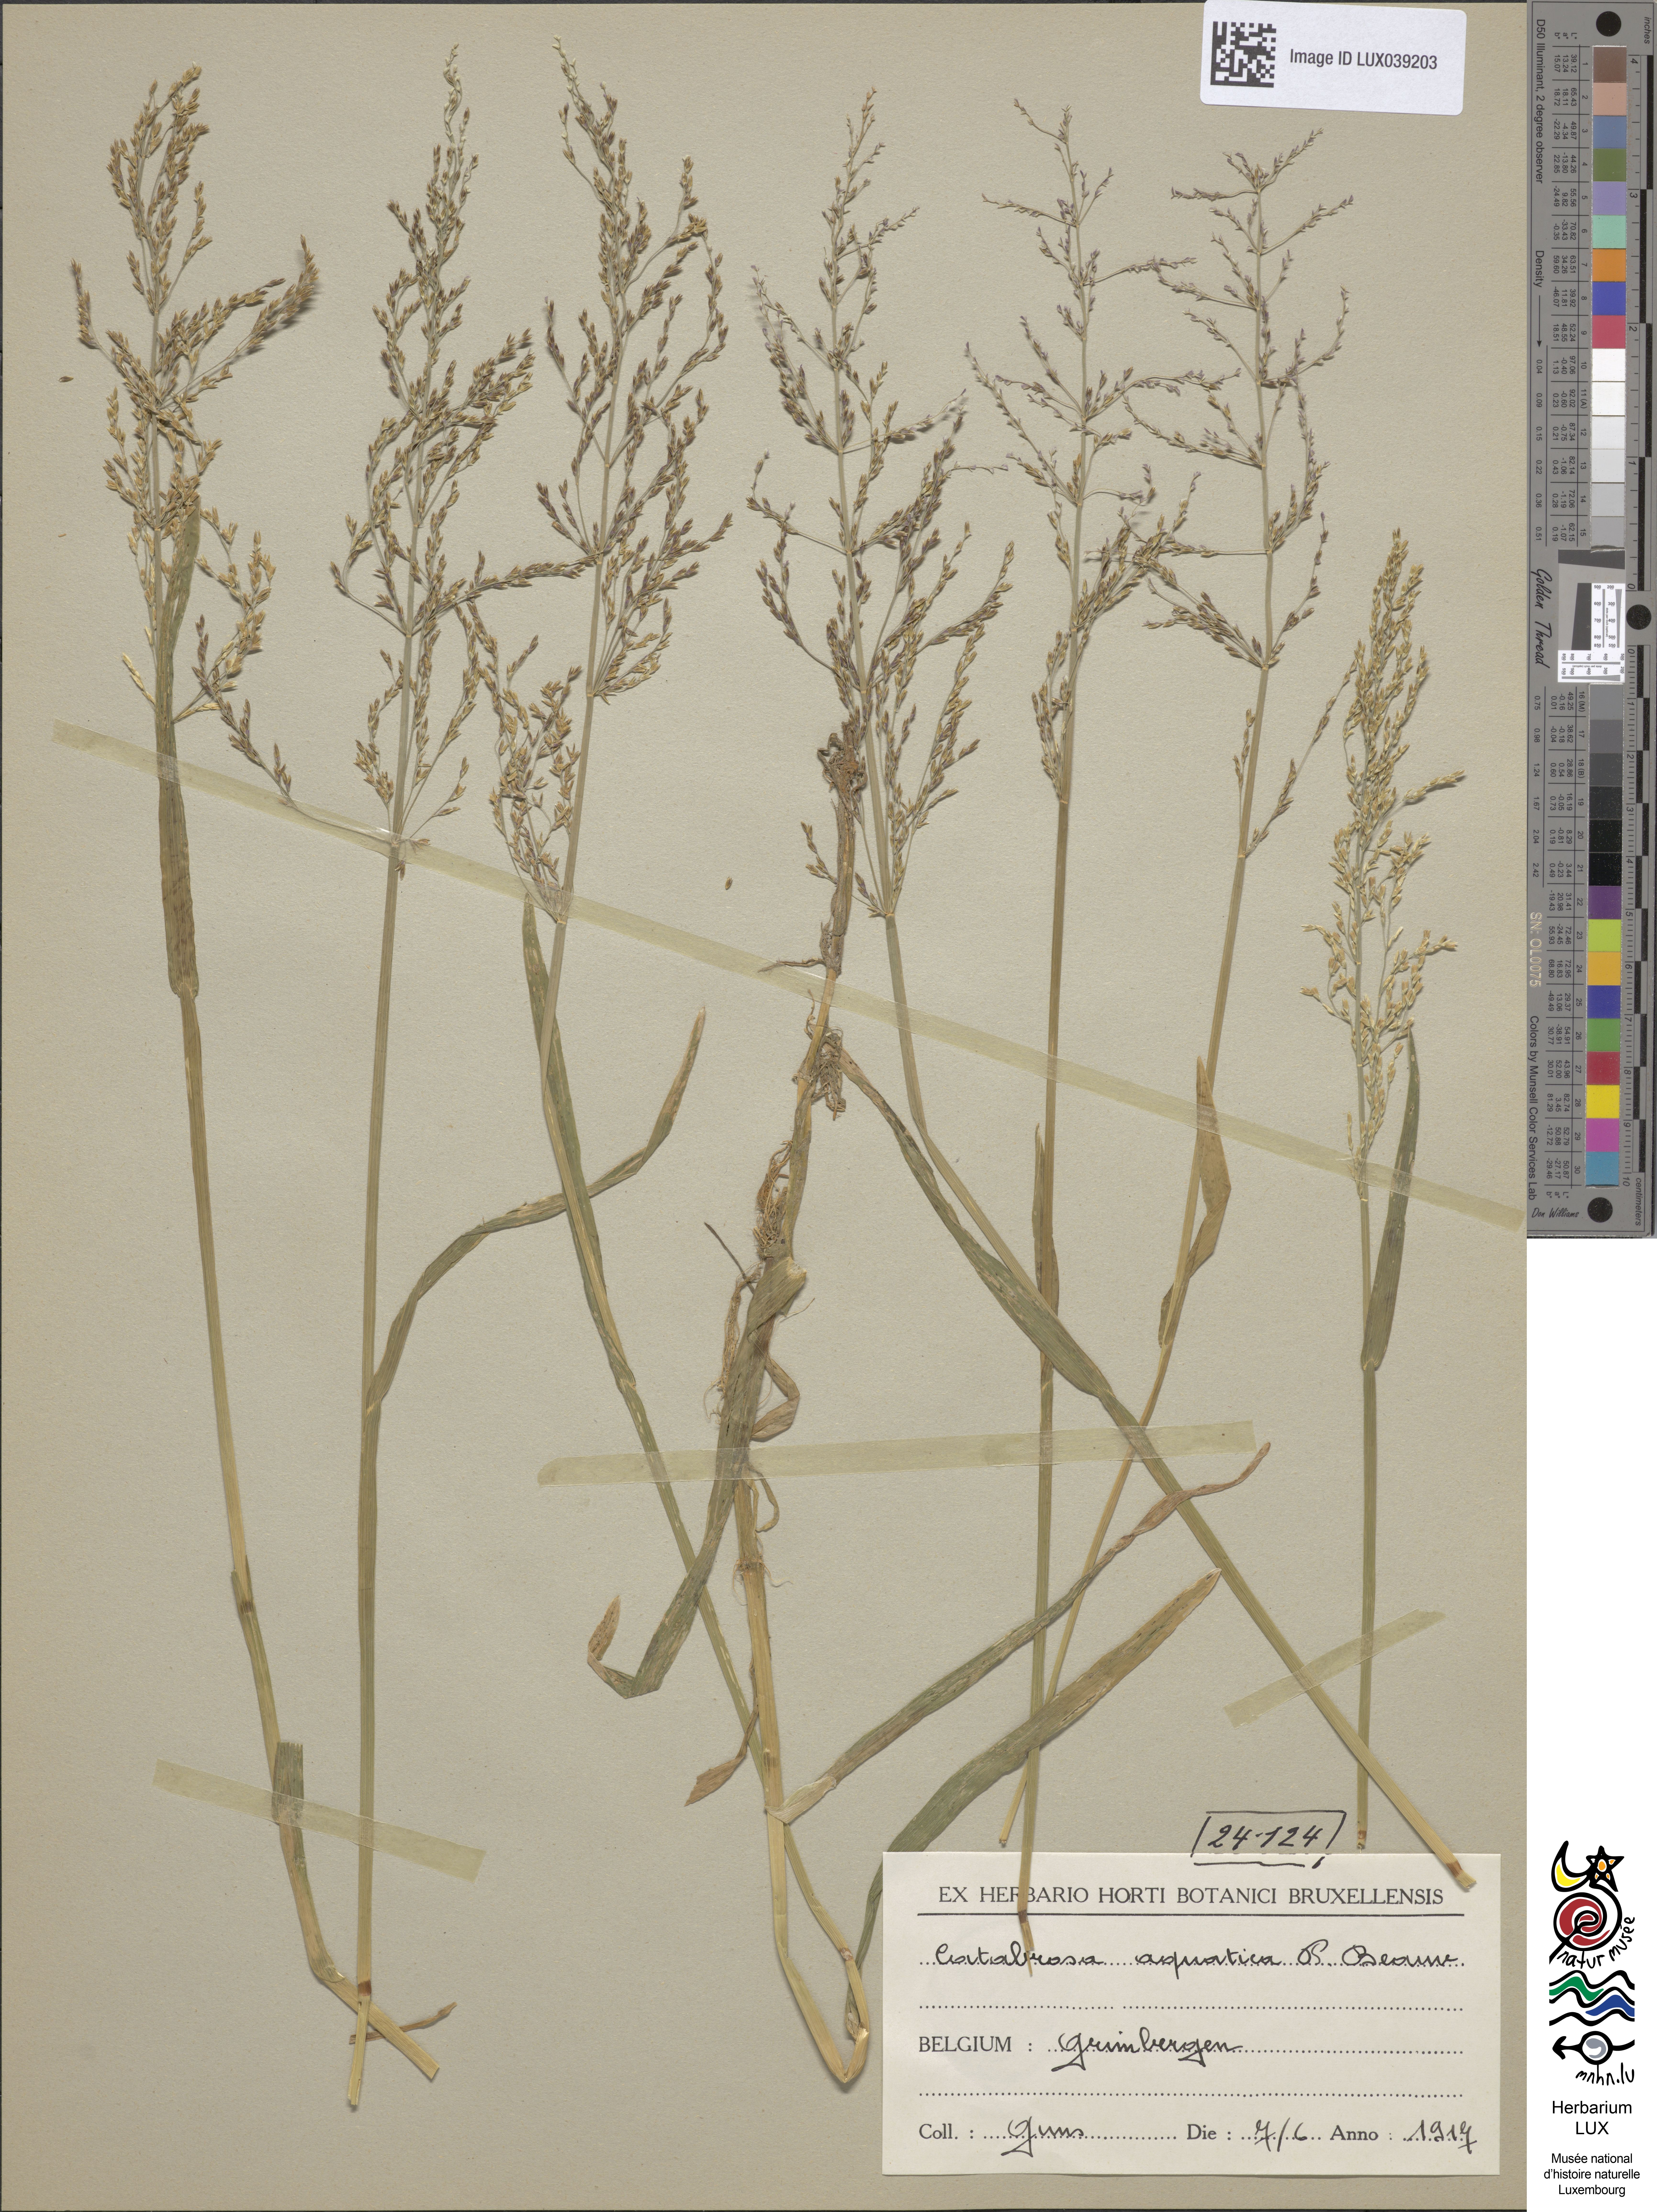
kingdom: Plantae
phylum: Tracheophyta
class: Liliopsida
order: Poales
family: Poaceae
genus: Catabrosa
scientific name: Catabrosa aquatica
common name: Whorl-grass
